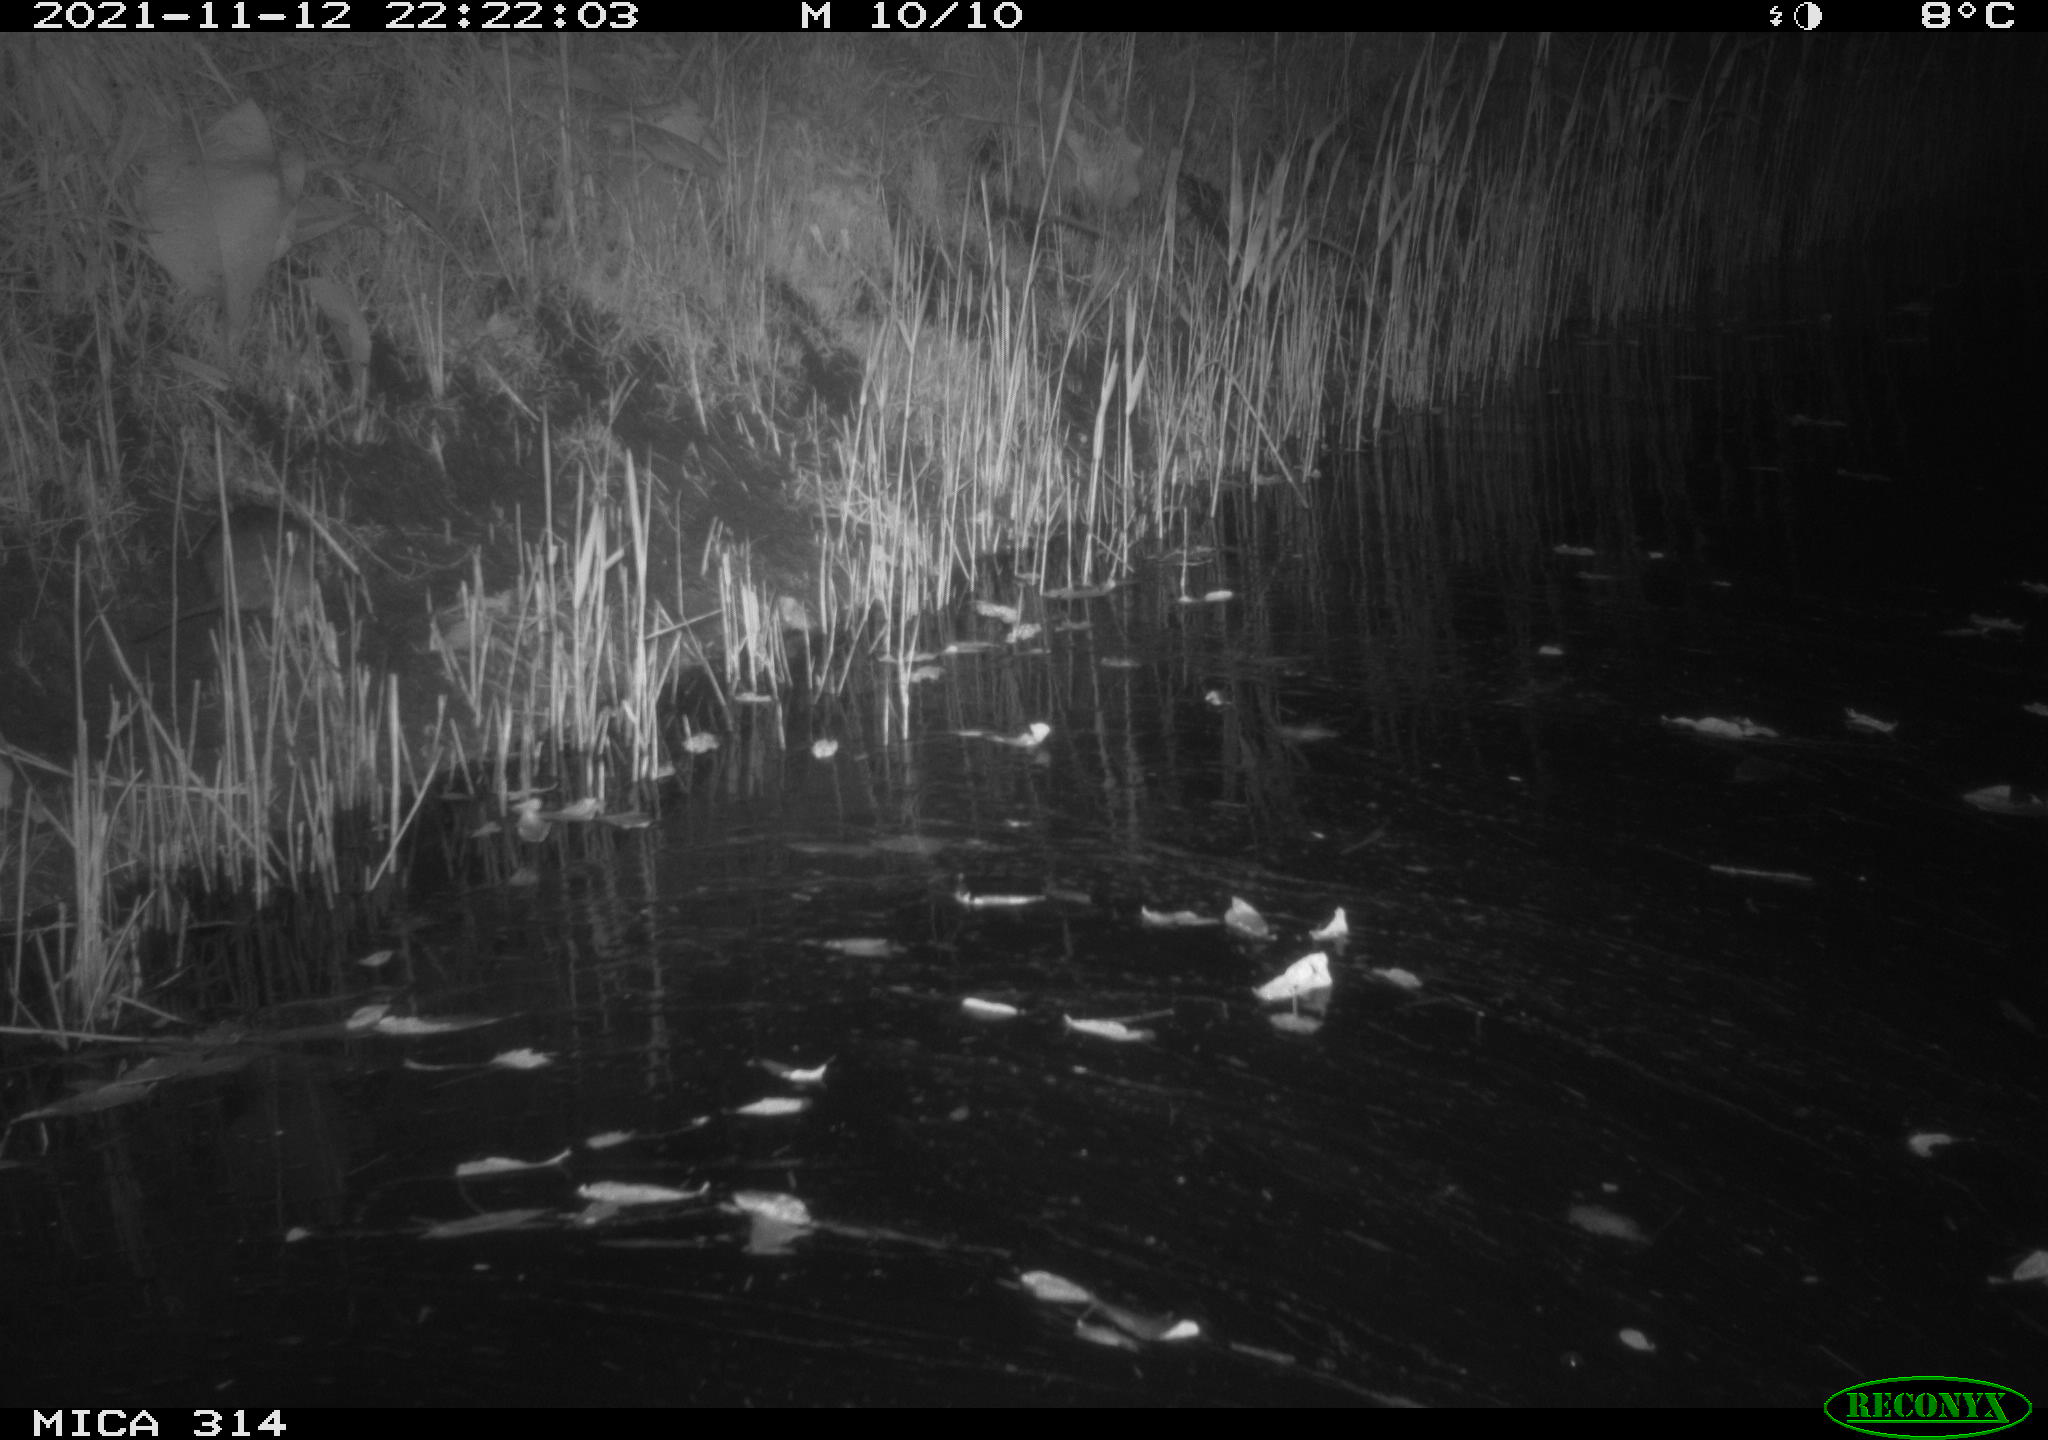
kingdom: Animalia
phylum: Chordata
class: Mammalia
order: Rodentia
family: Muridae
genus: Rattus
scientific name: Rattus norvegicus
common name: Brown rat
